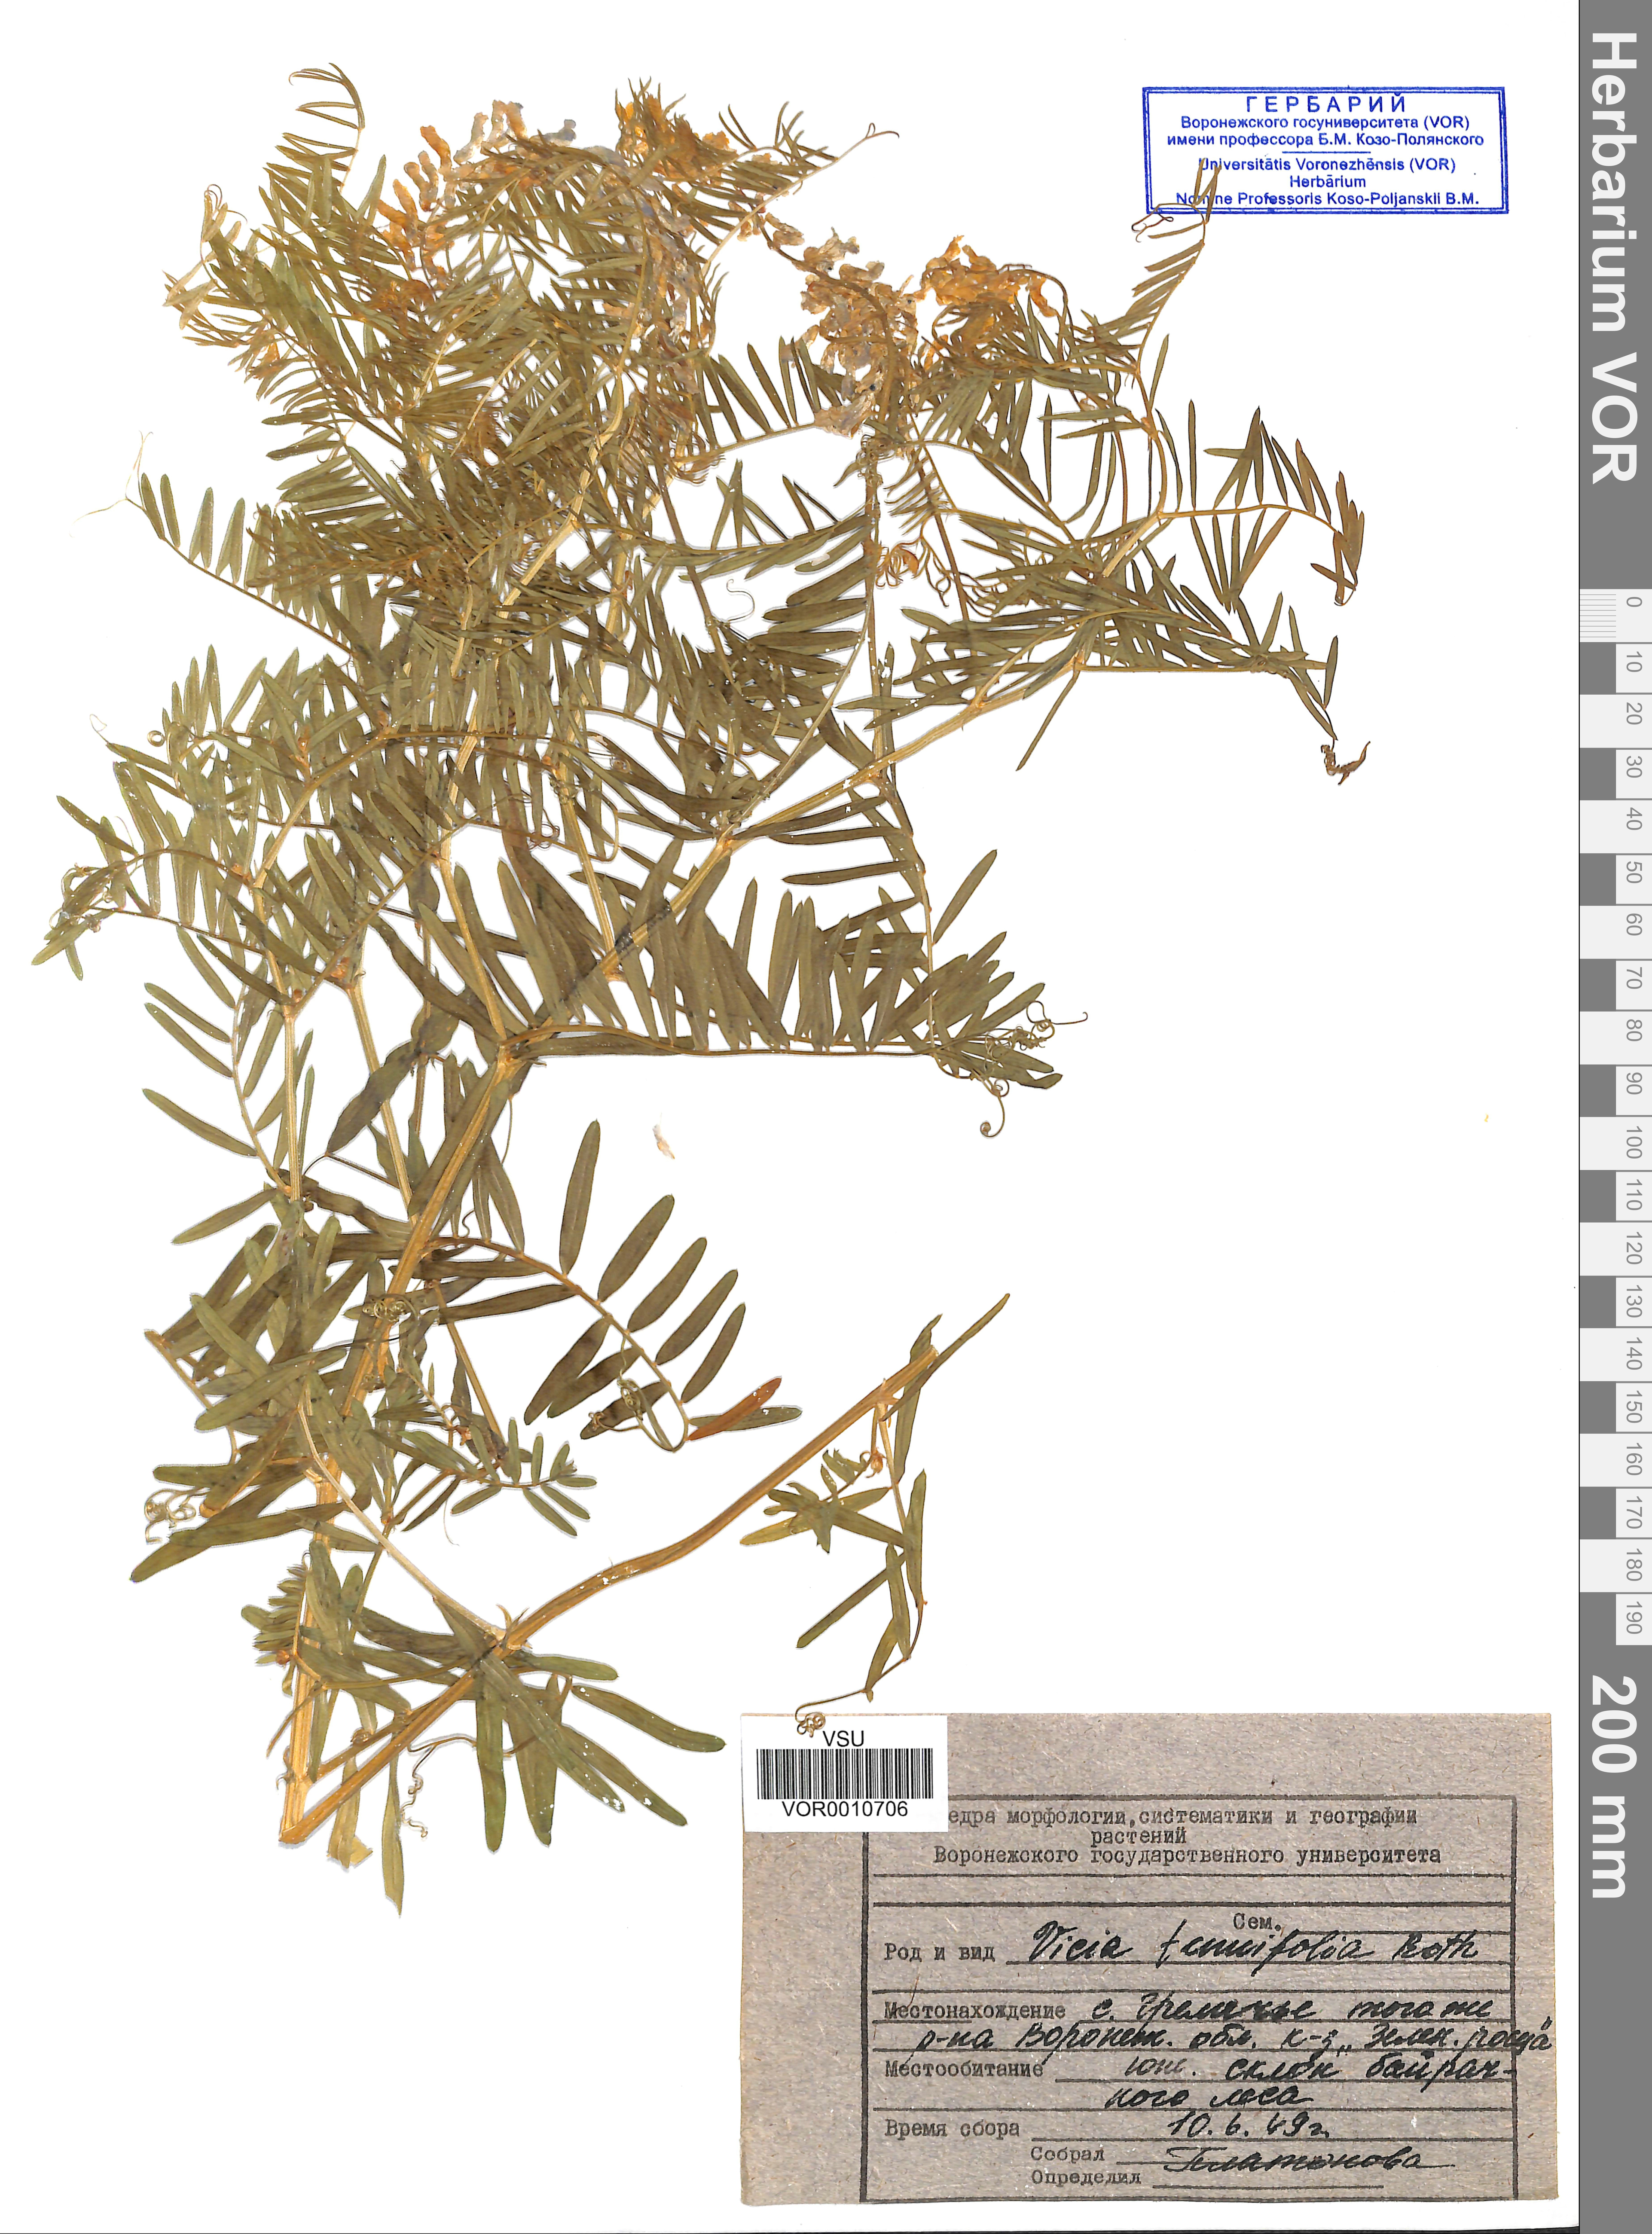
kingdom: Plantae
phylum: Tracheophyta
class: Magnoliopsida
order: Fabales
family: Fabaceae
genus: Vicia
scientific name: Vicia tenuifolia
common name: Fine-leaved vetch
